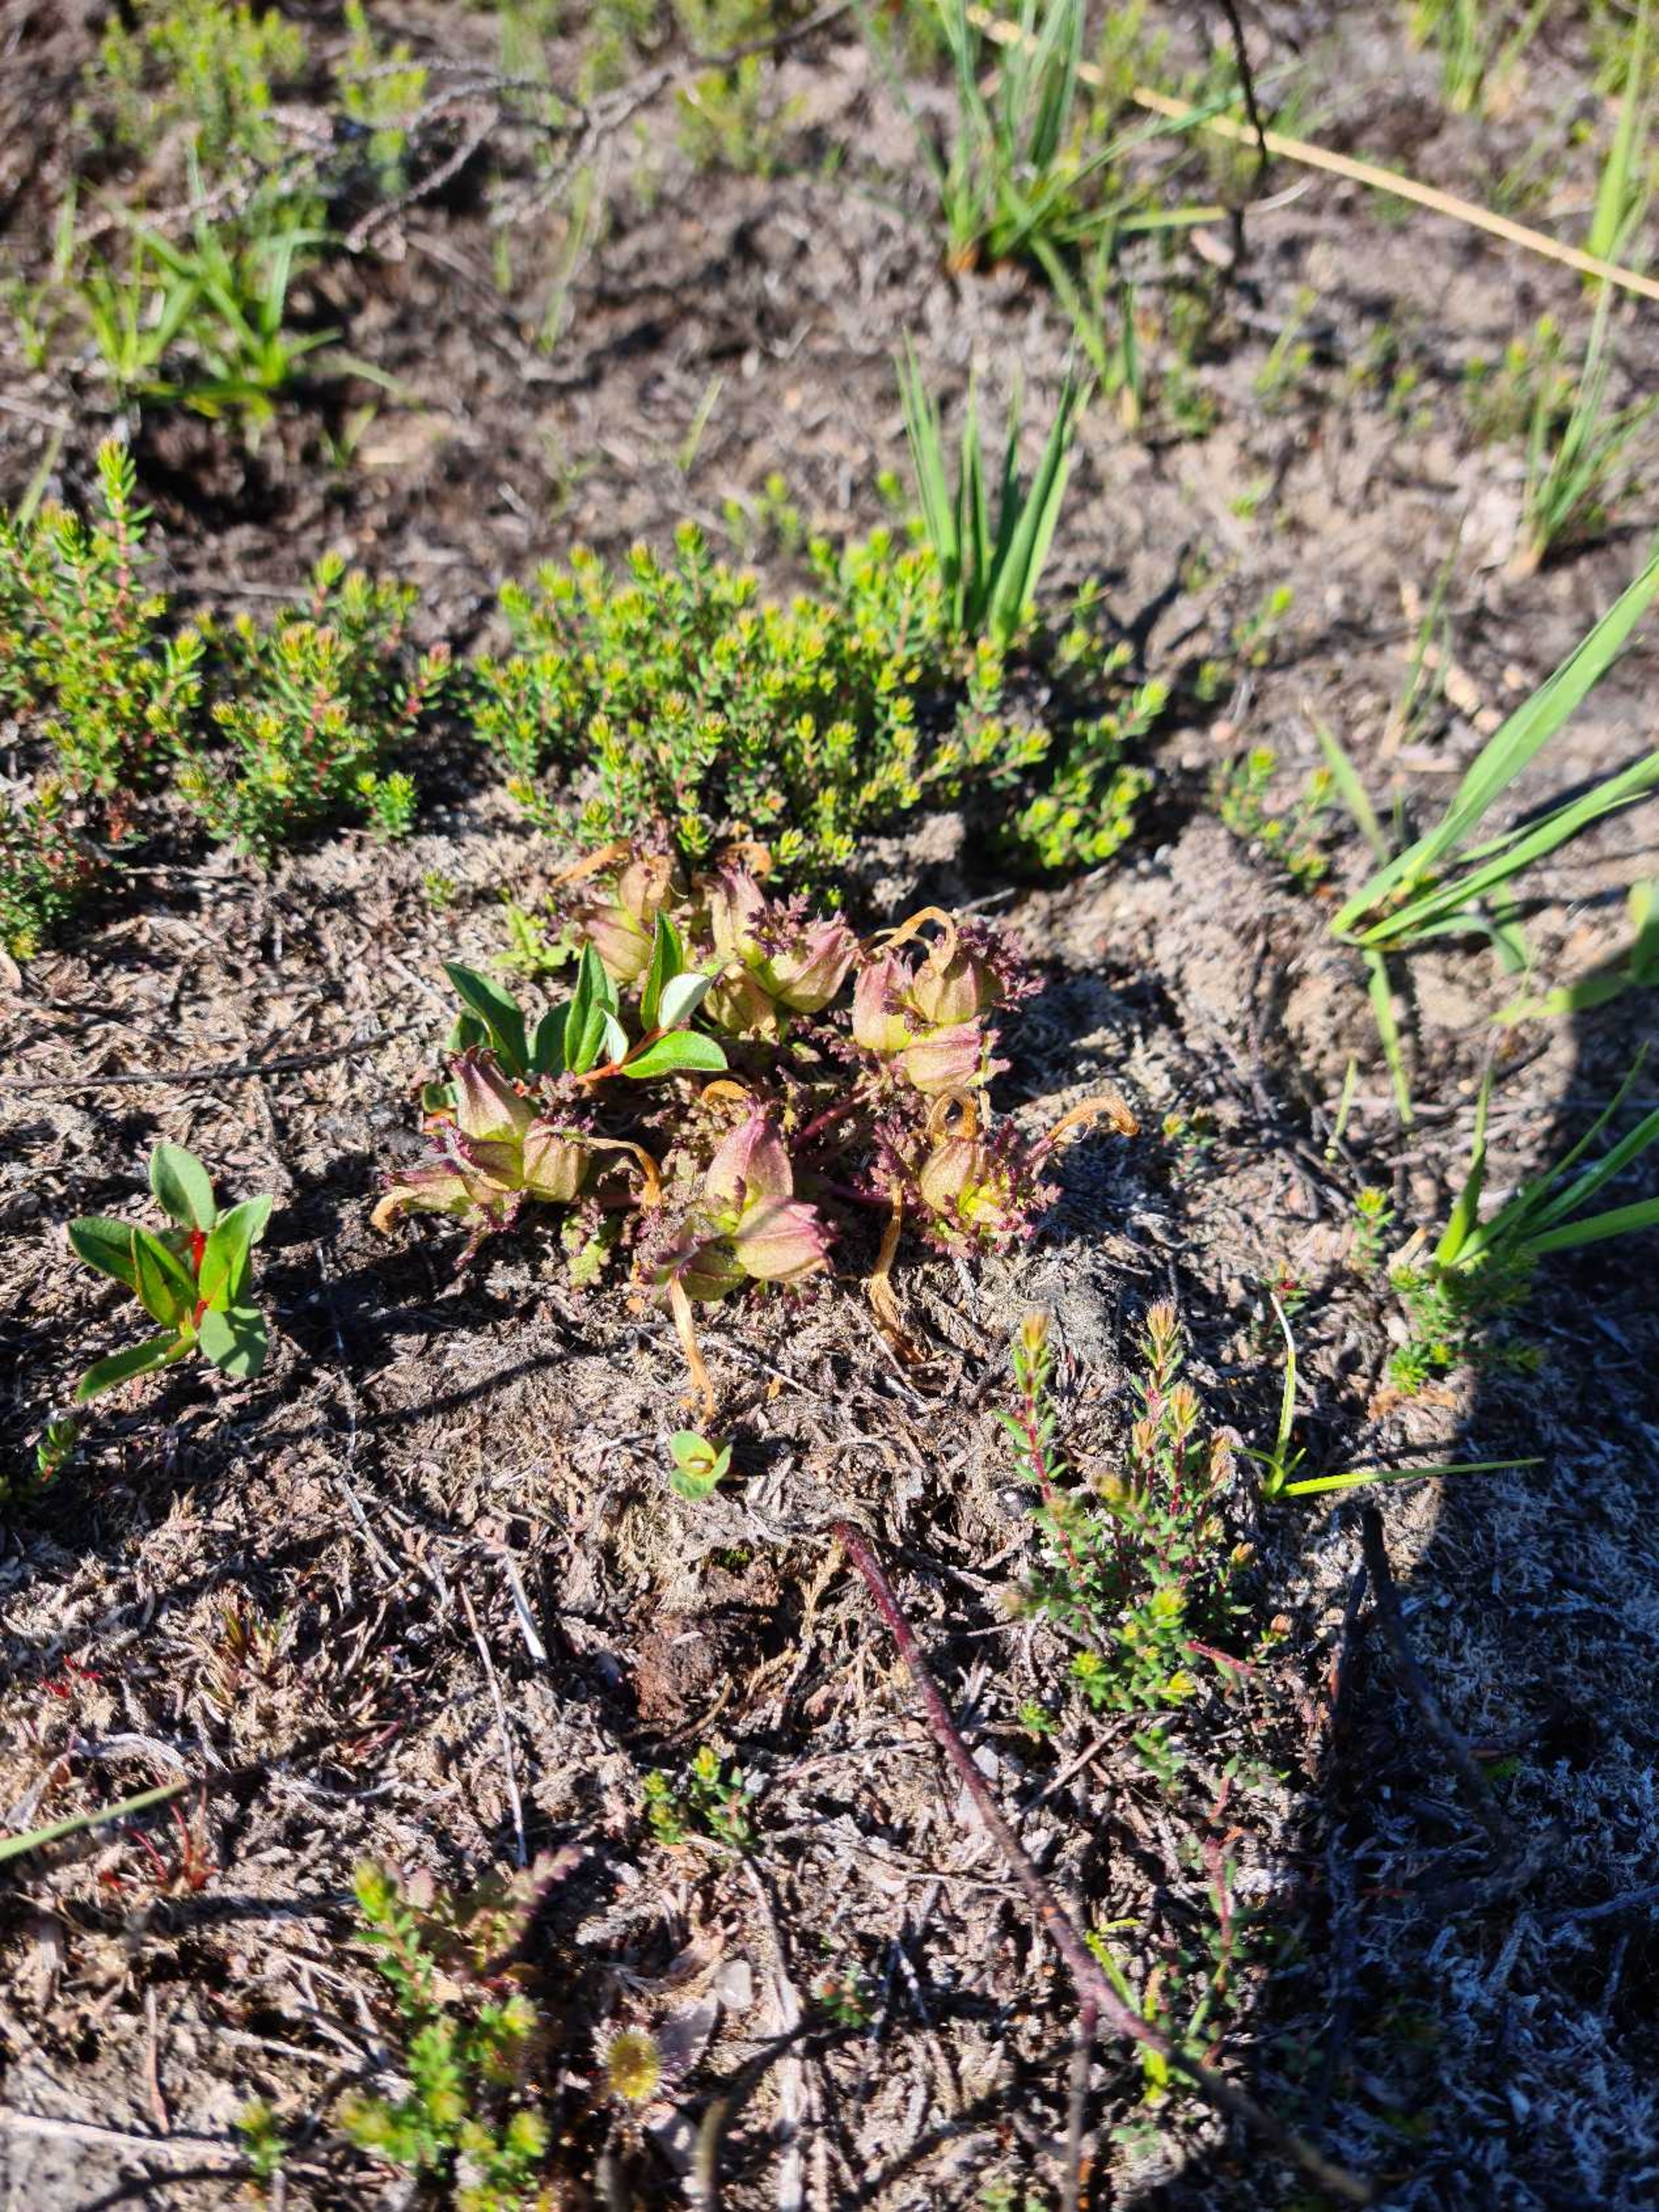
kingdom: Plantae
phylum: Tracheophyta
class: Magnoliopsida
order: Lamiales
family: Orobanchaceae
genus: Pedicularis
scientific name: Pedicularis sylvatica
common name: Mose-troldurt
